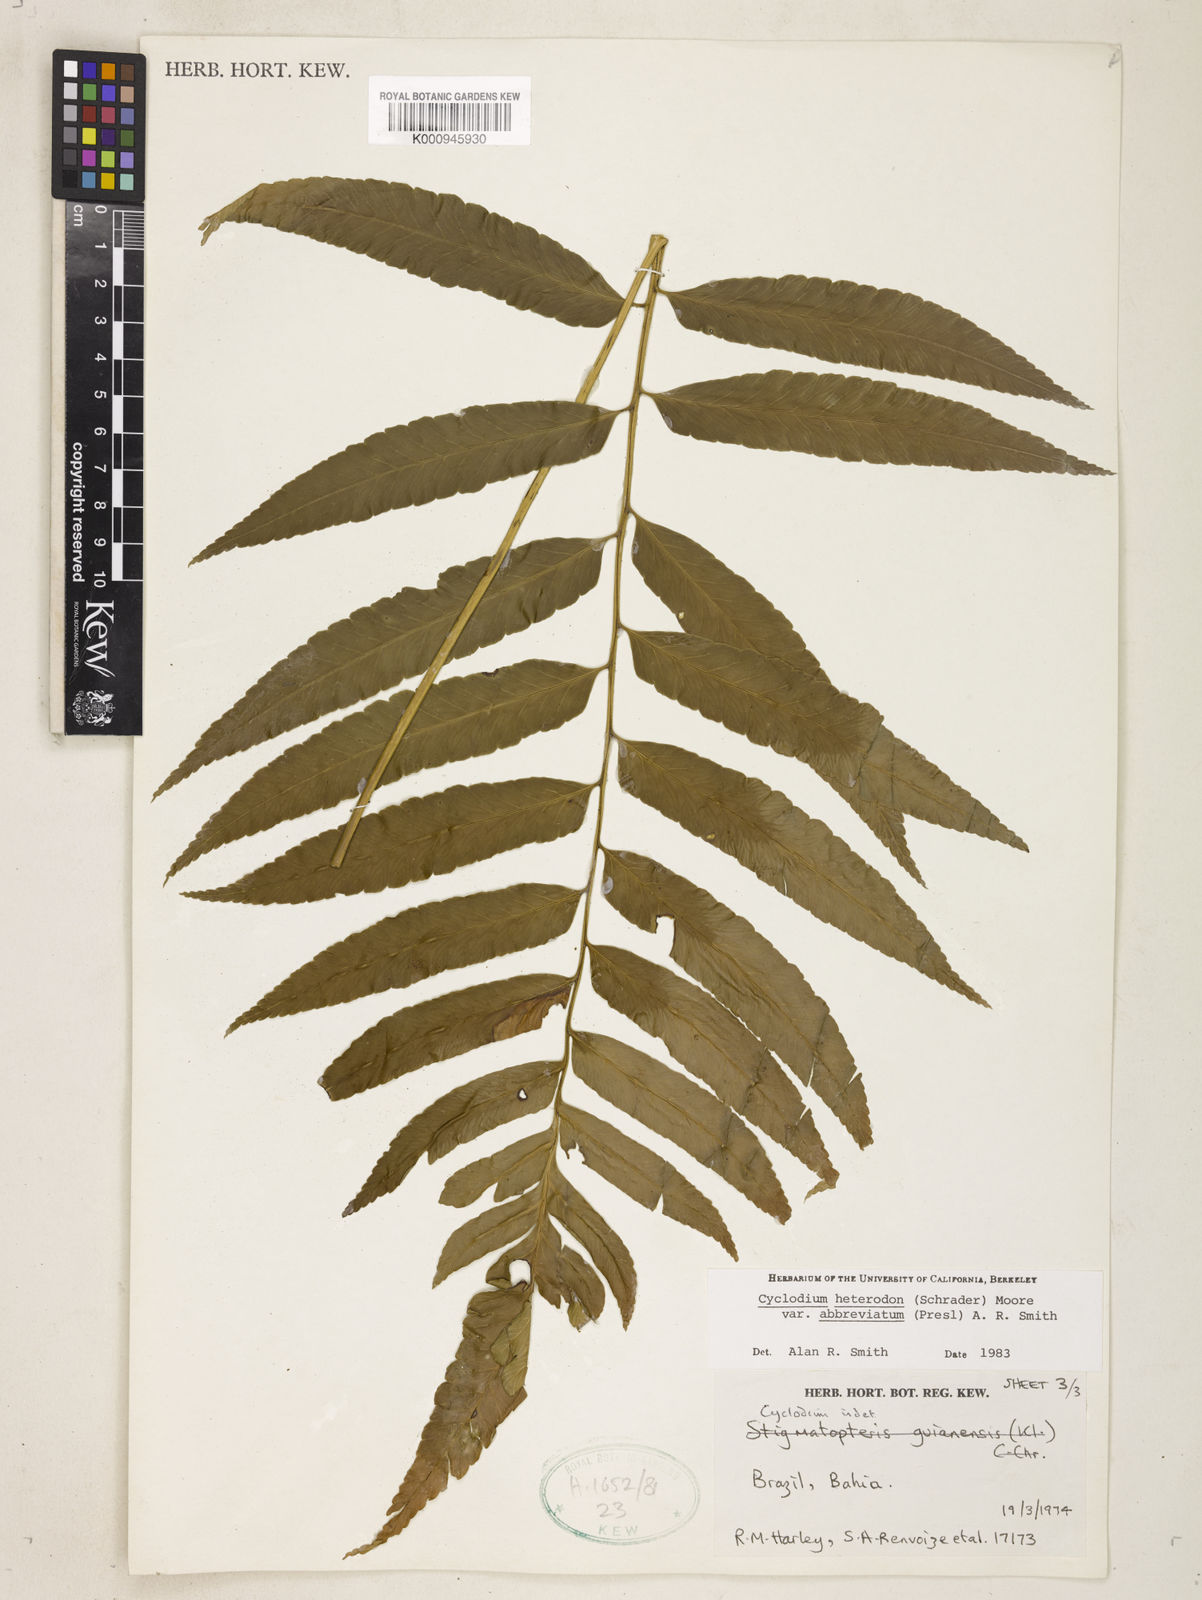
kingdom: Plantae
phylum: Tracheophyta
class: Polypodiopsida
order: Polypodiales
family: Dryopteridaceae
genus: Cyclodium
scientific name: Cyclodium heterodon
